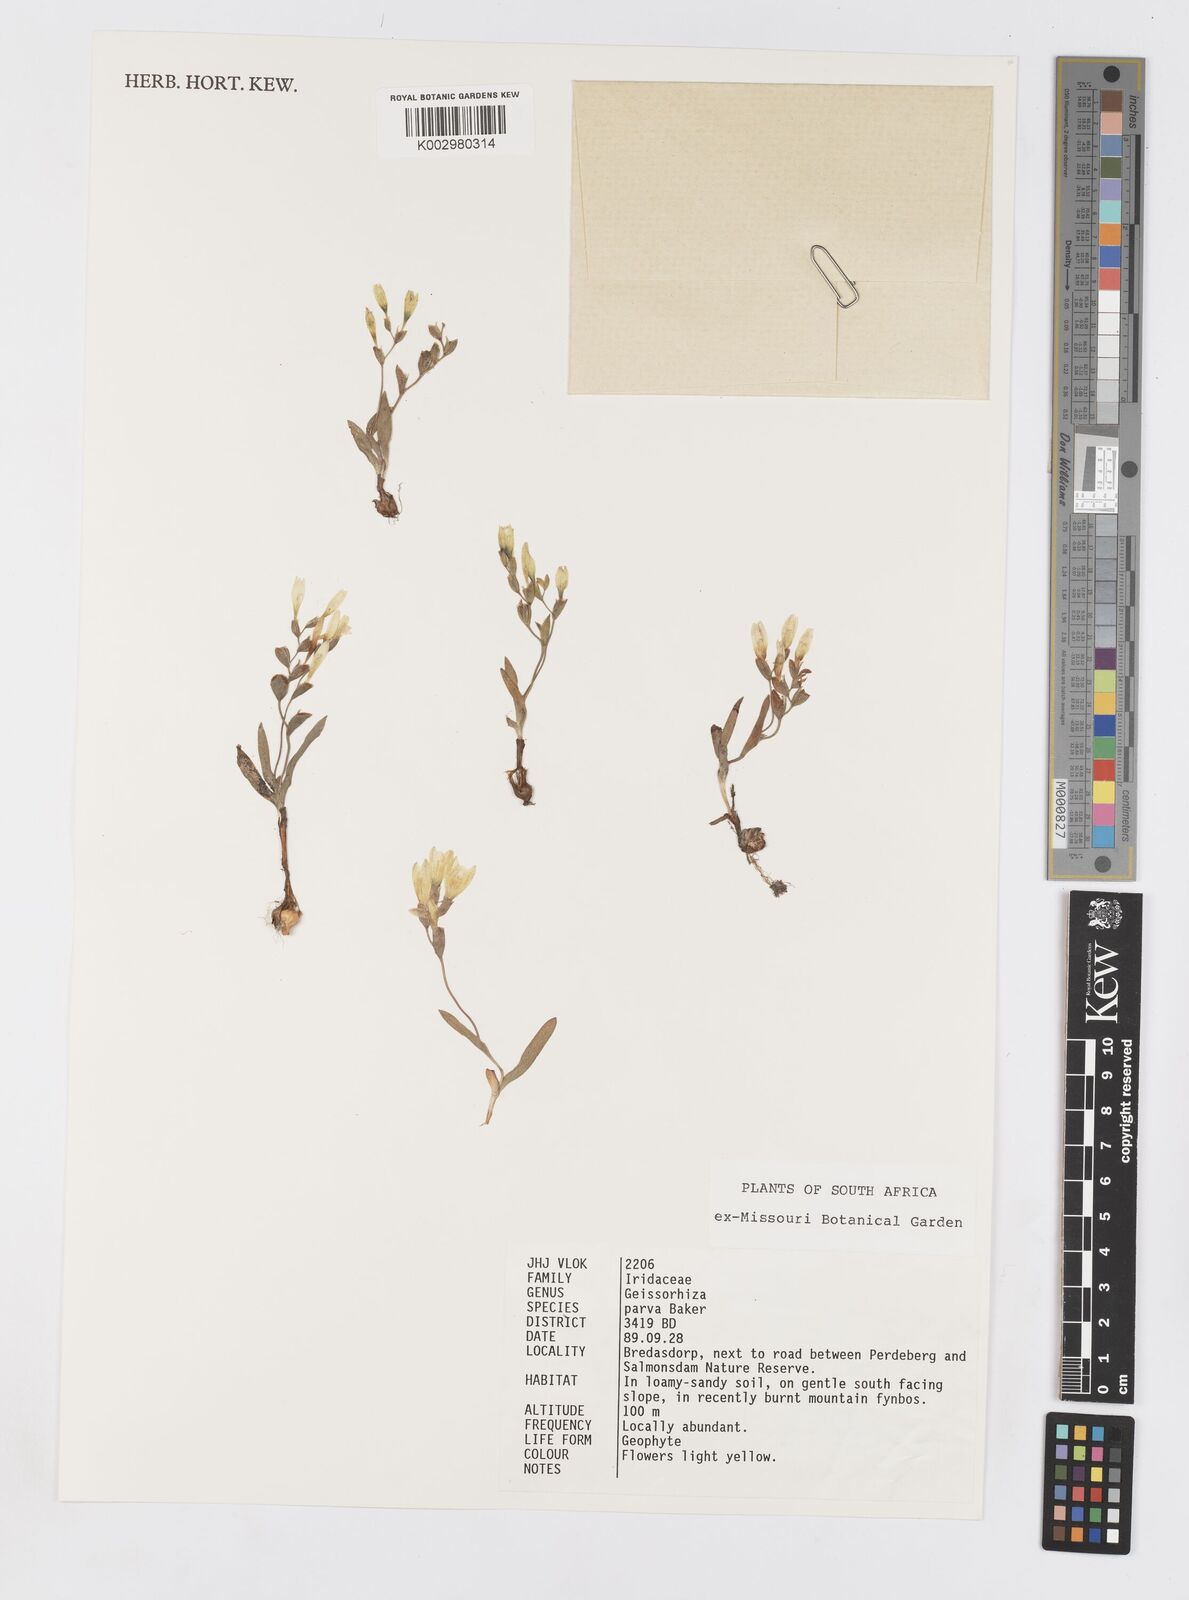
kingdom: Plantae
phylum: Tracheophyta
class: Liliopsida
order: Asparagales
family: Iridaceae
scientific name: Iridaceae
